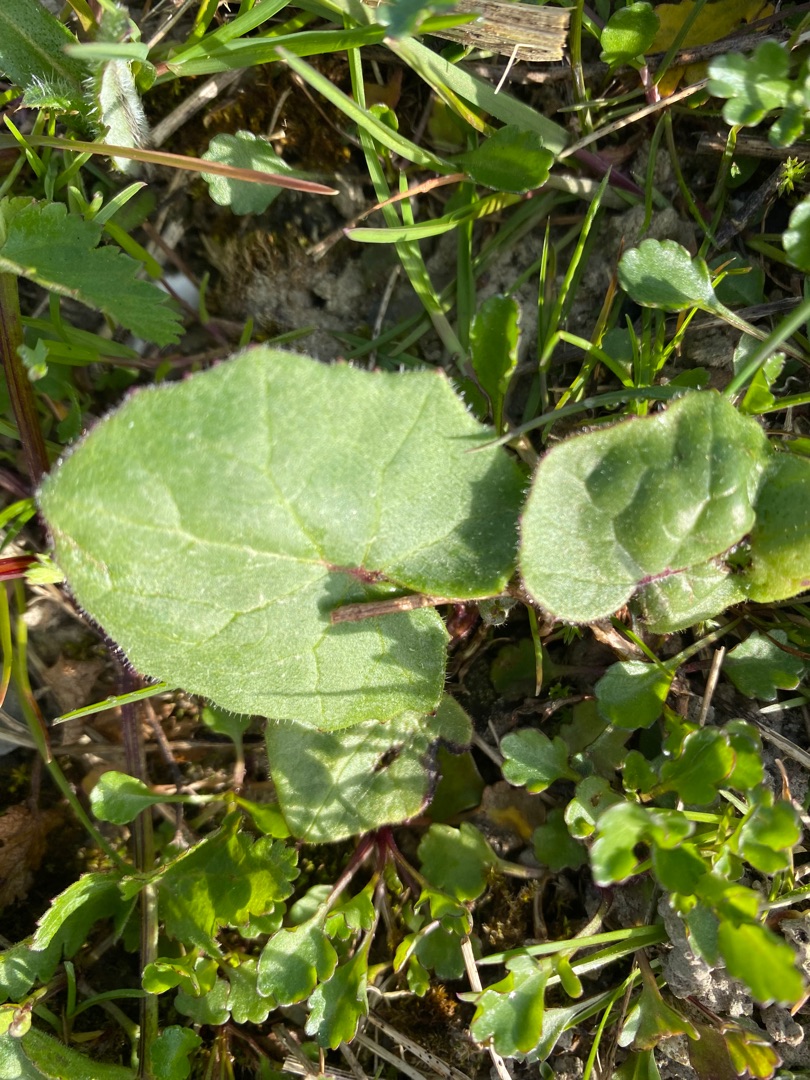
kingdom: Plantae
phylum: Tracheophyta
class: Magnoliopsida
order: Asterales
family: Asteraceae
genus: Tussilago
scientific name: Tussilago farfara
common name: Følfod
